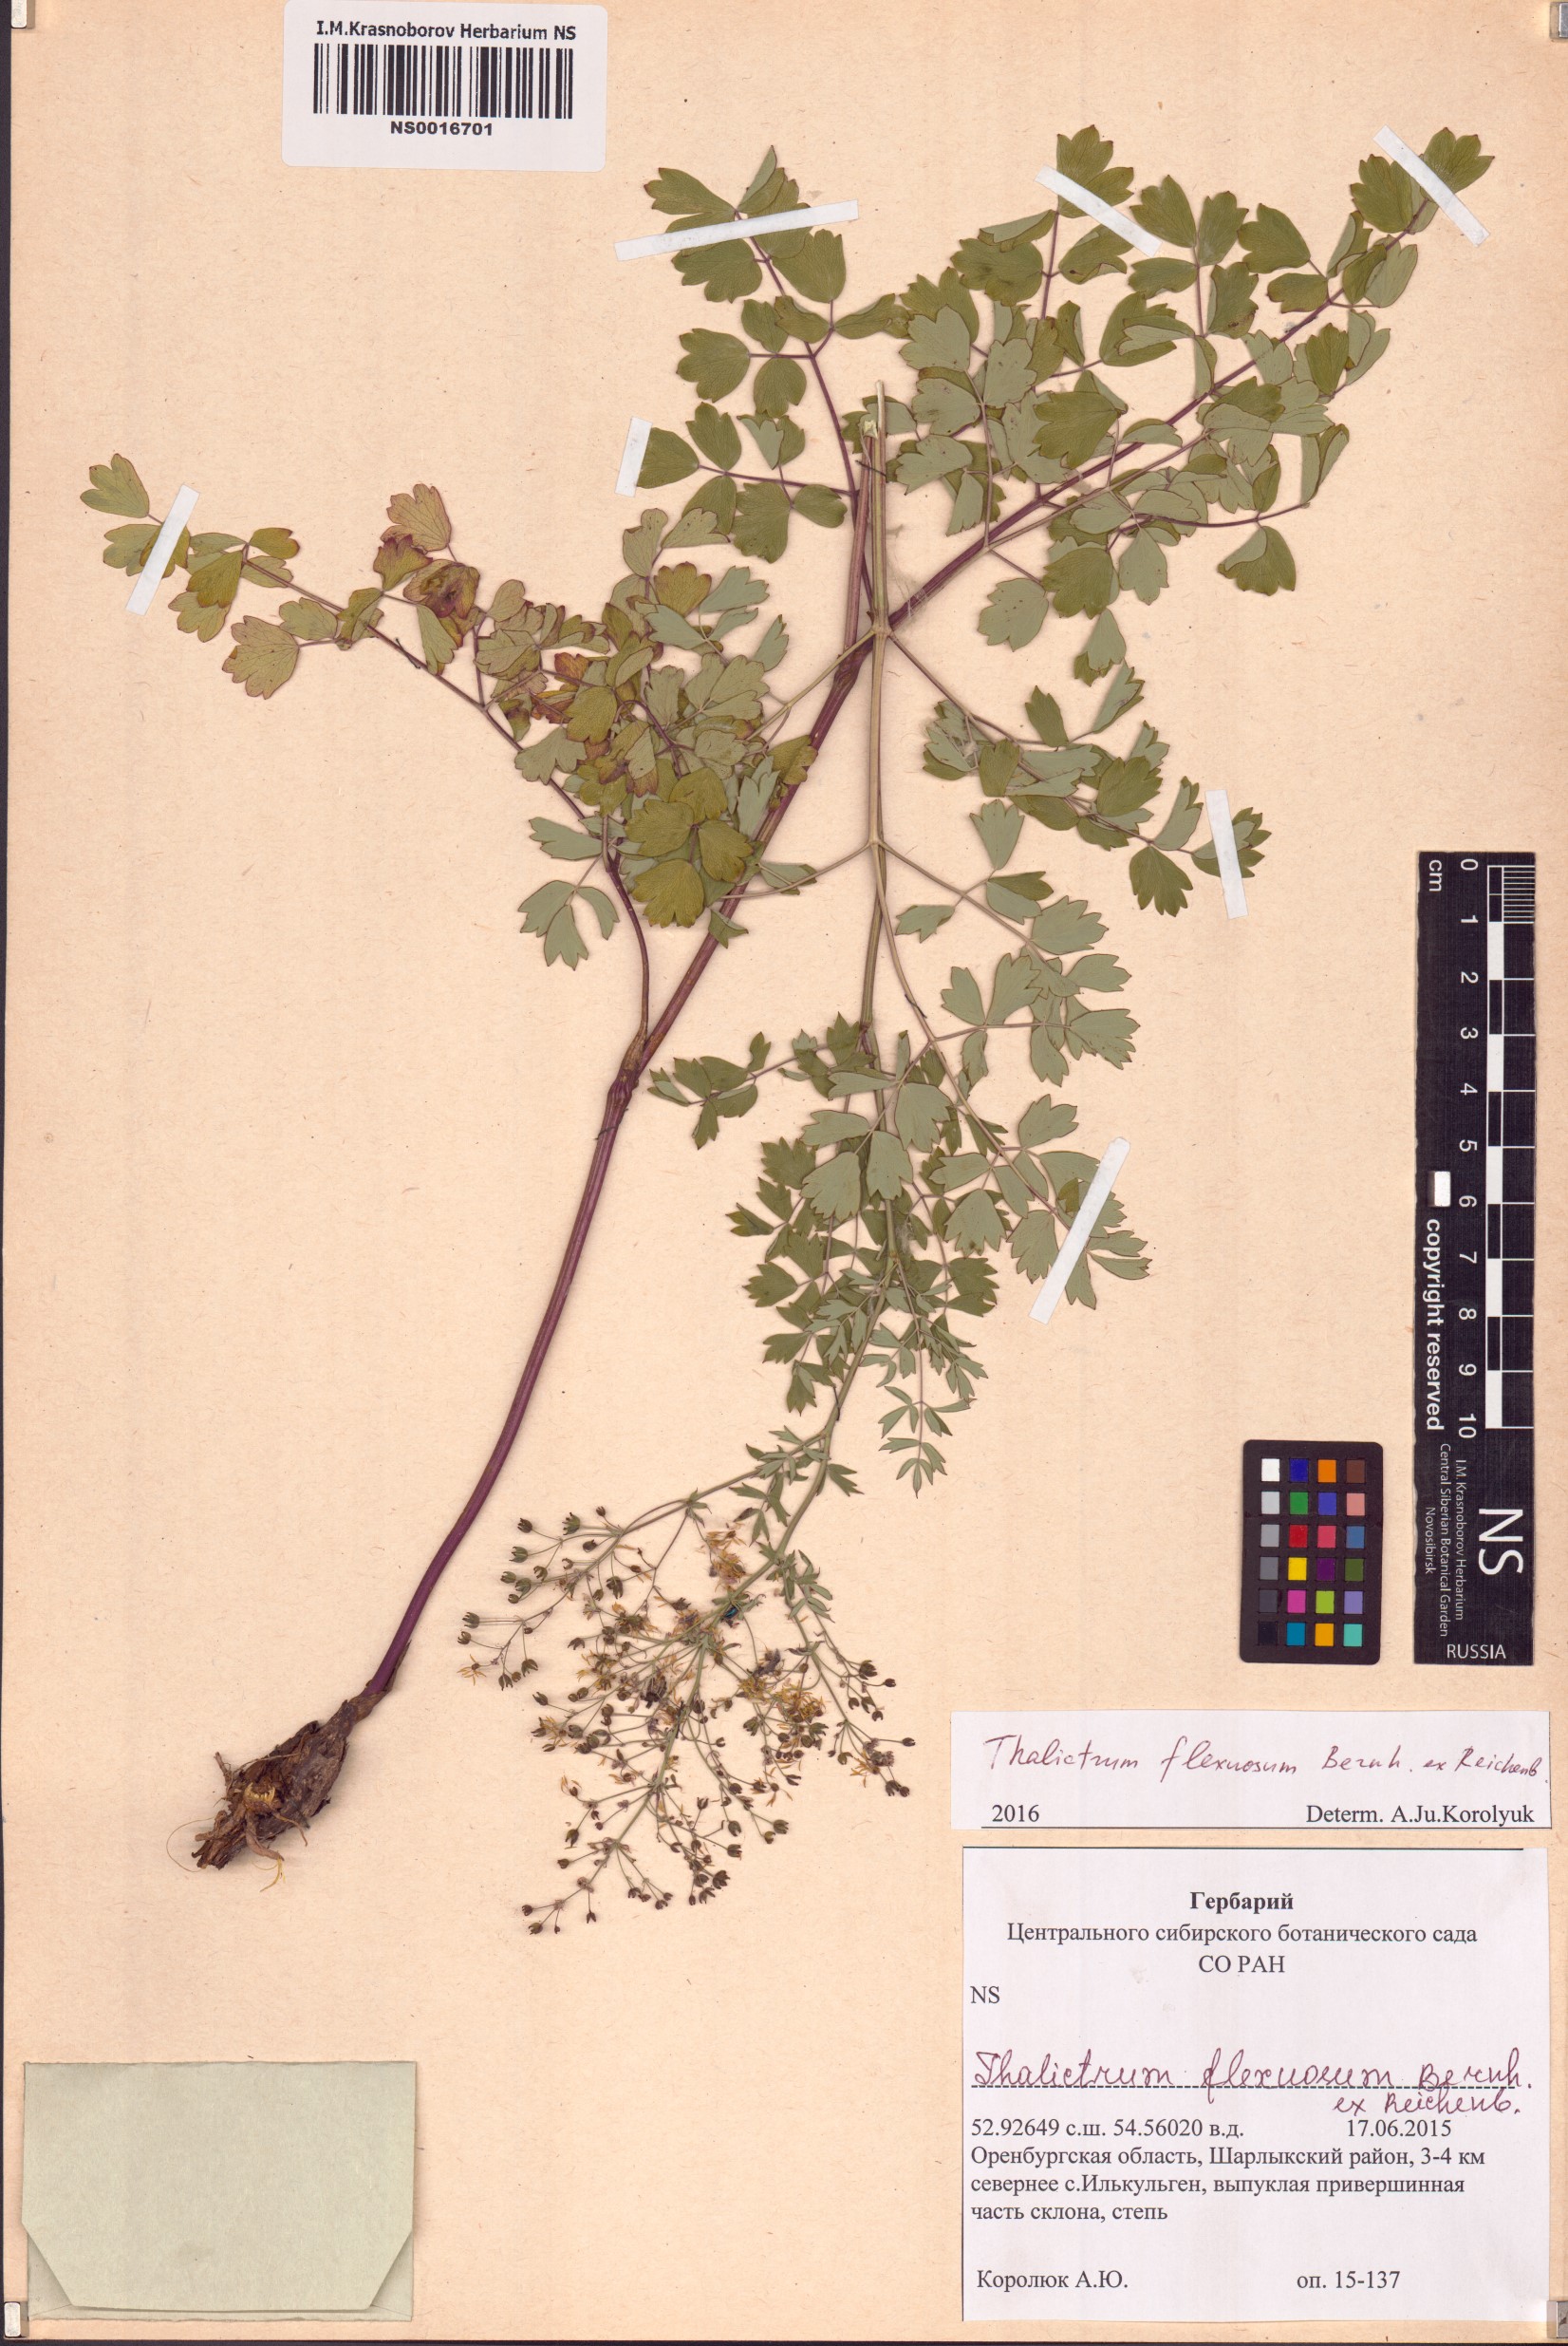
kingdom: Plantae
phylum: Tracheophyta
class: Magnoliopsida
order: Ranunculales
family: Ranunculaceae
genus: Thalictrum
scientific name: Thalictrum minus
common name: Lesser meadow-rue
